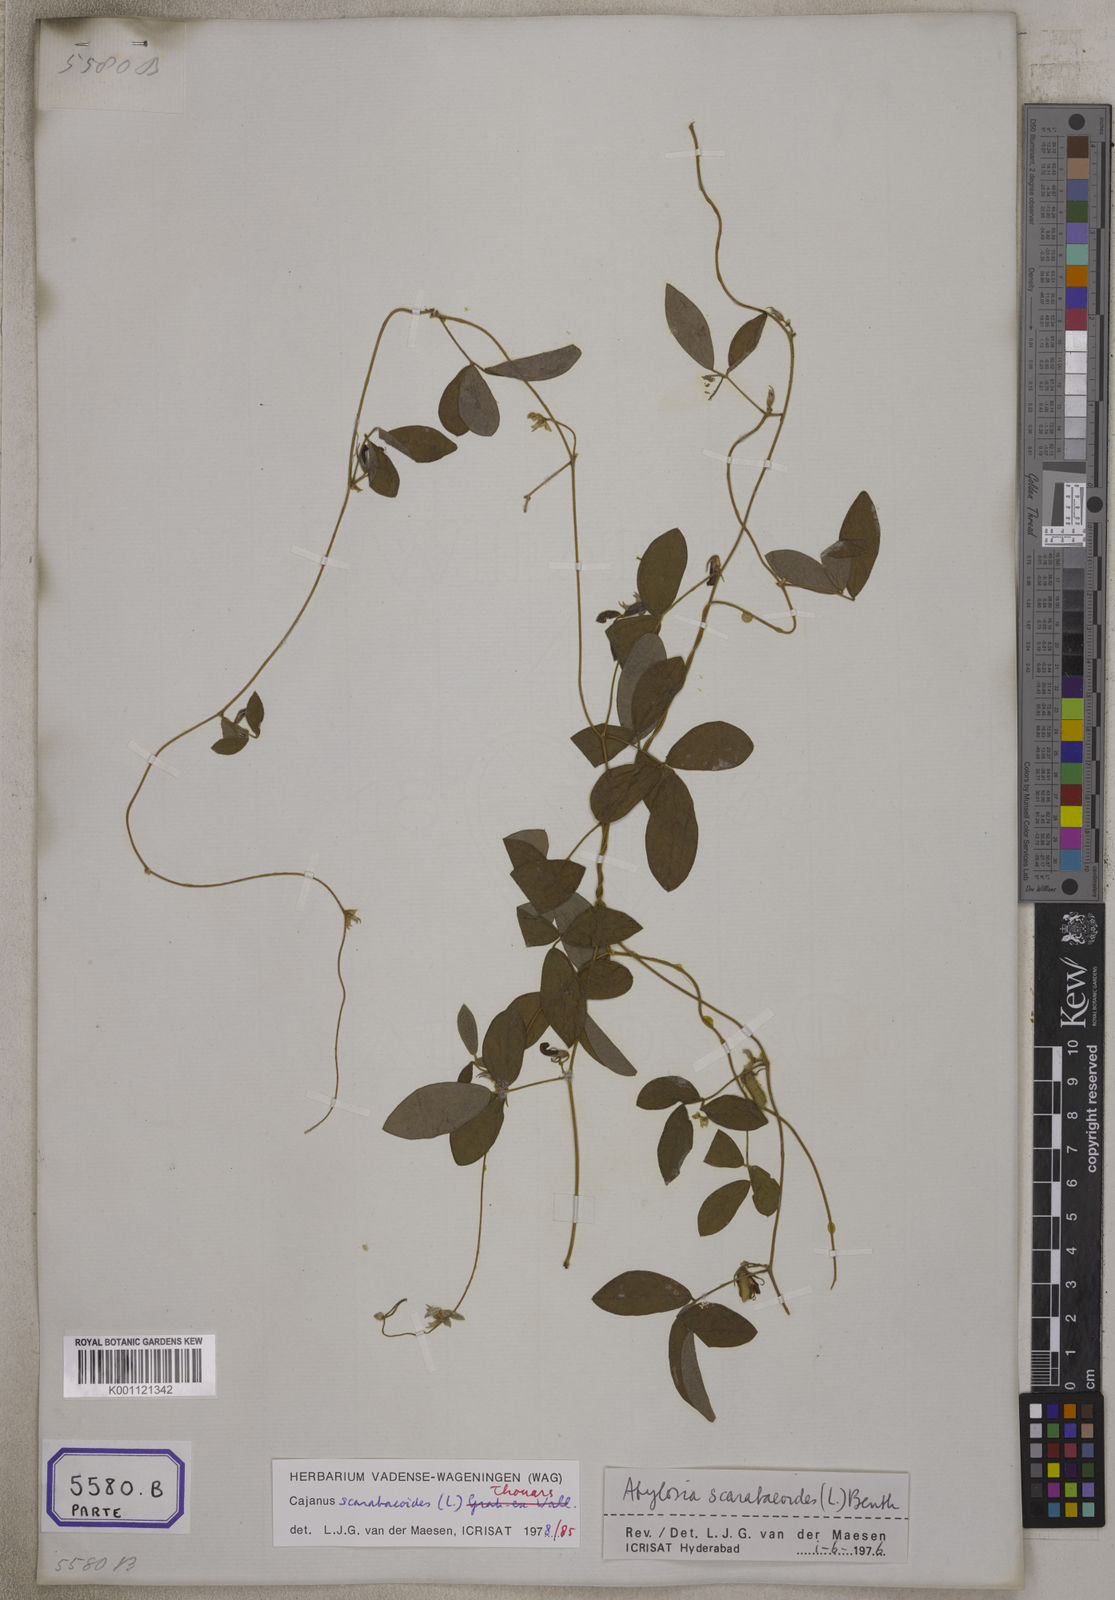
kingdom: Plantae
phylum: Tracheophyta
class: Magnoliopsida
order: Fabales
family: Fabaceae
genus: Cajanus
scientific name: Cajanus scarabaeoides
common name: Showy pigeonpea
